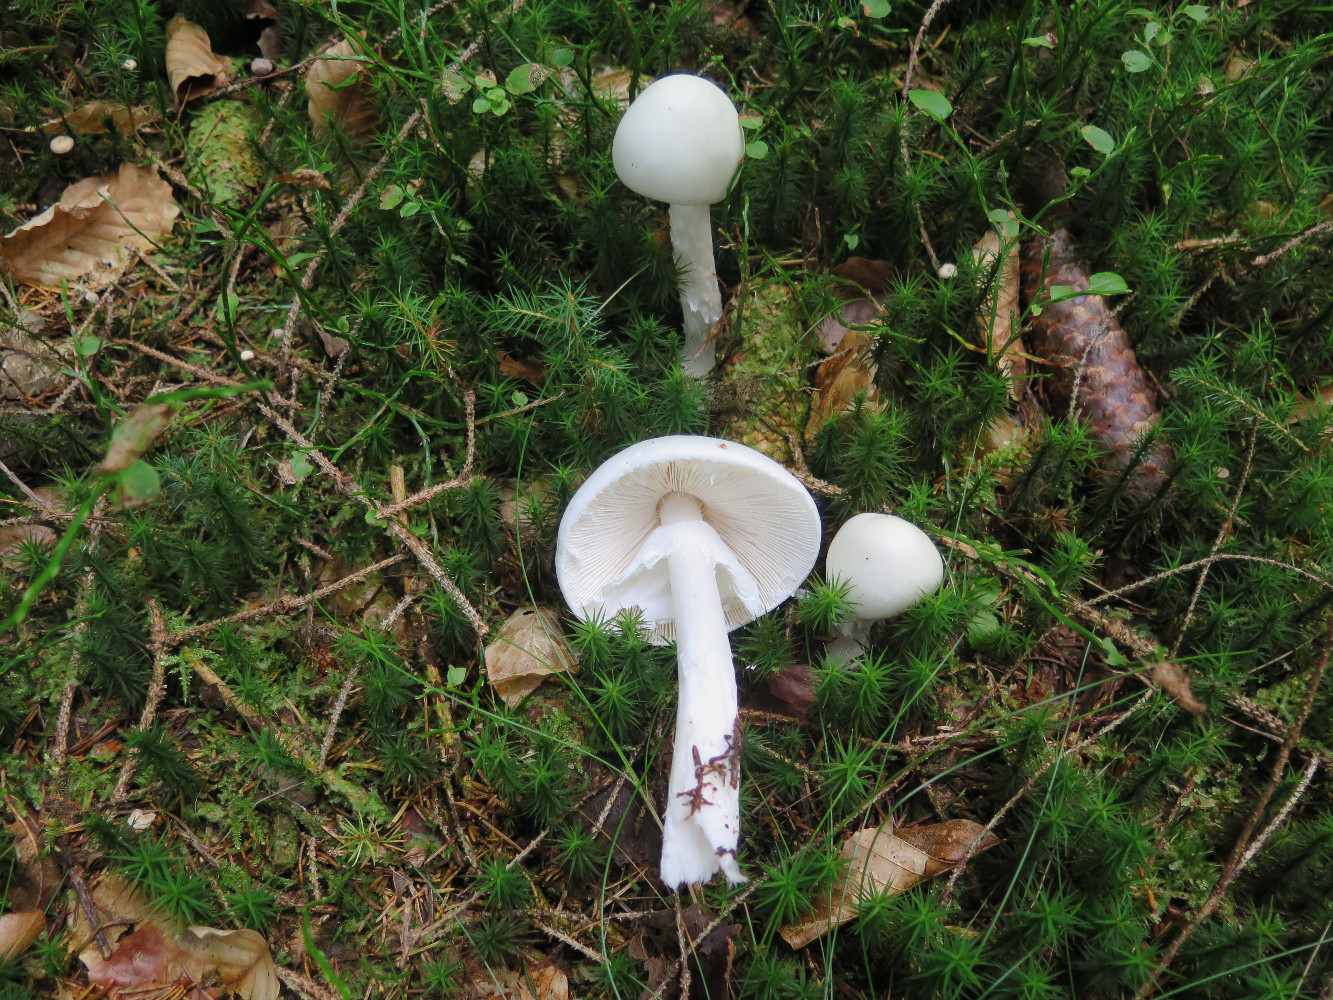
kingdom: Fungi
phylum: Basidiomycota
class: Agaricomycetes
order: Agaricales
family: Amanitaceae
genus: Amanita
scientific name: Amanita virosa
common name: snehvid fluesvamp
